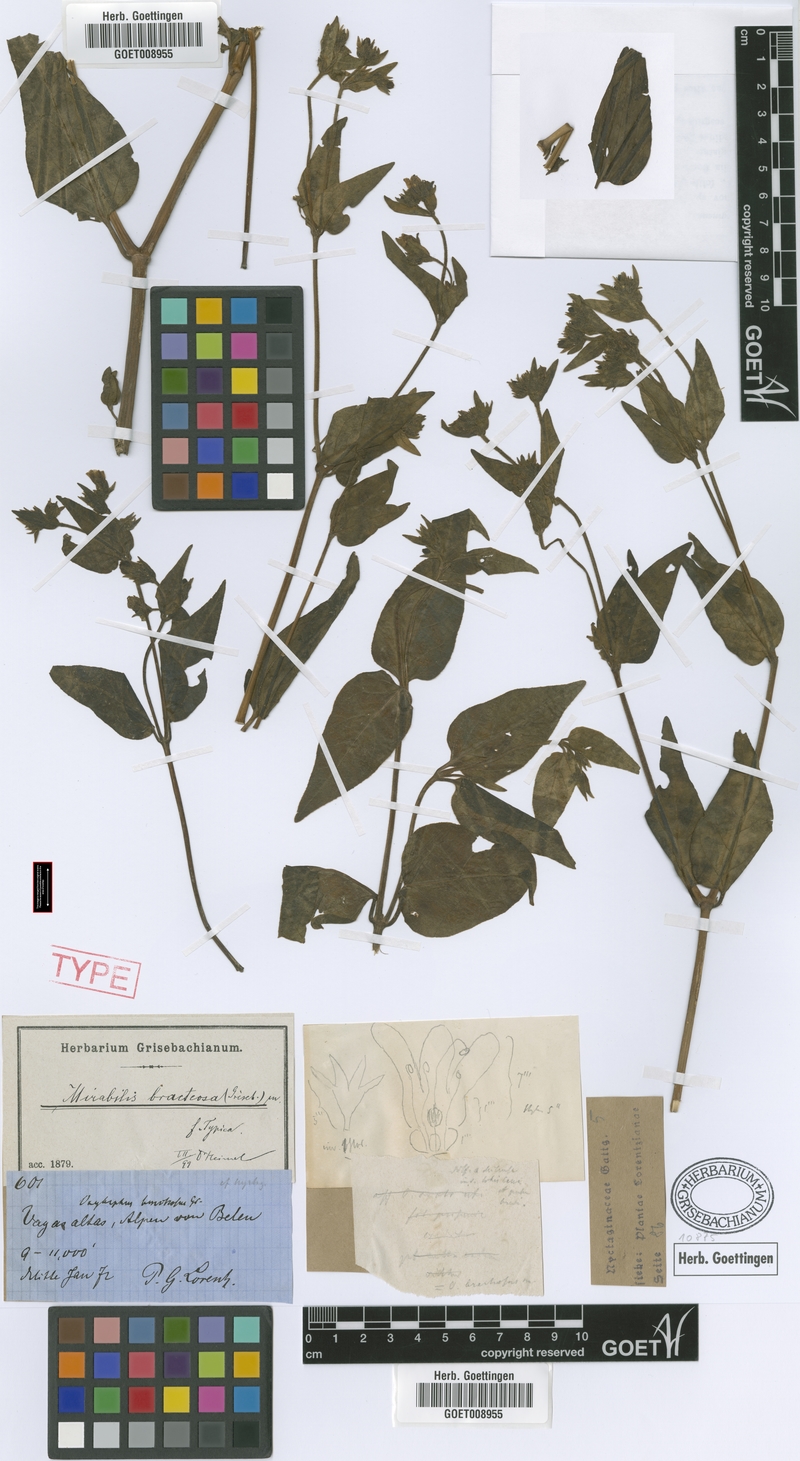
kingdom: Plantae
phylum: Tracheophyta
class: Magnoliopsida
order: Caryophyllales
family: Nyctaginaceae
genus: Mirabilis
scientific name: Mirabilis bracteosa
